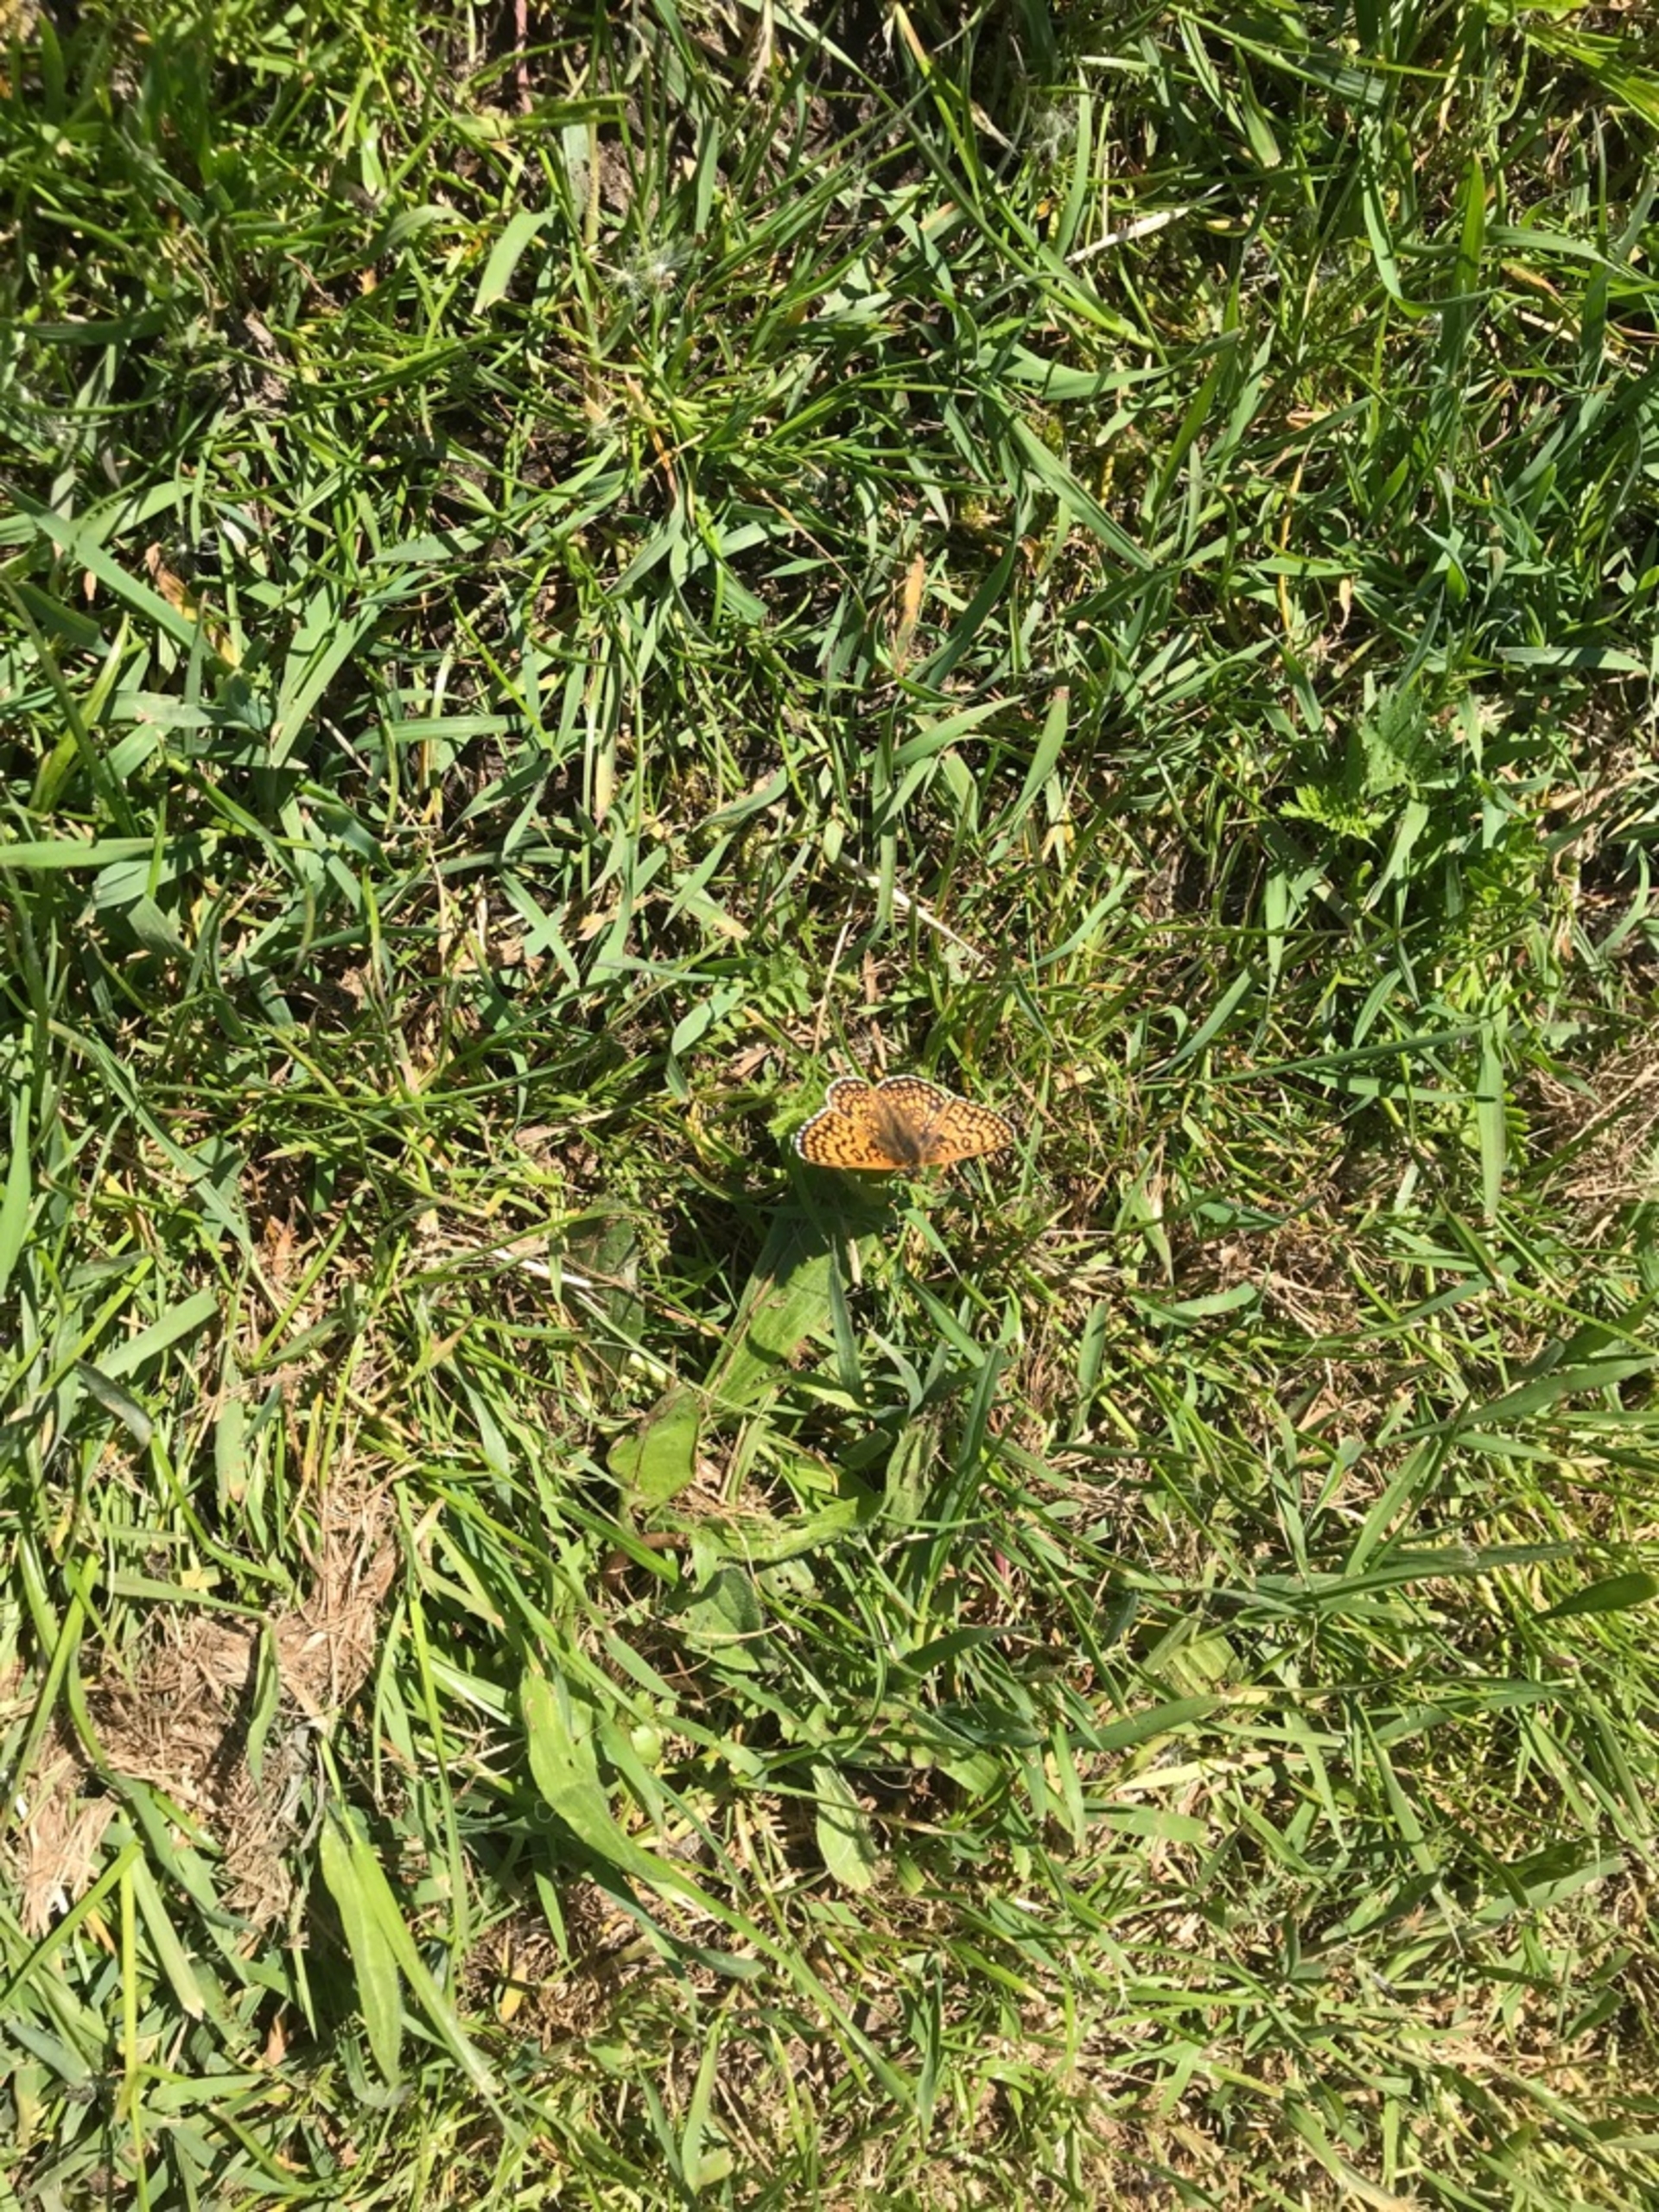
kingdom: Animalia
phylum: Arthropoda
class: Insecta
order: Lepidoptera
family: Nymphalidae
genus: Melitaea
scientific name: Melitaea cinxia
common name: Okkergul pletvinge
